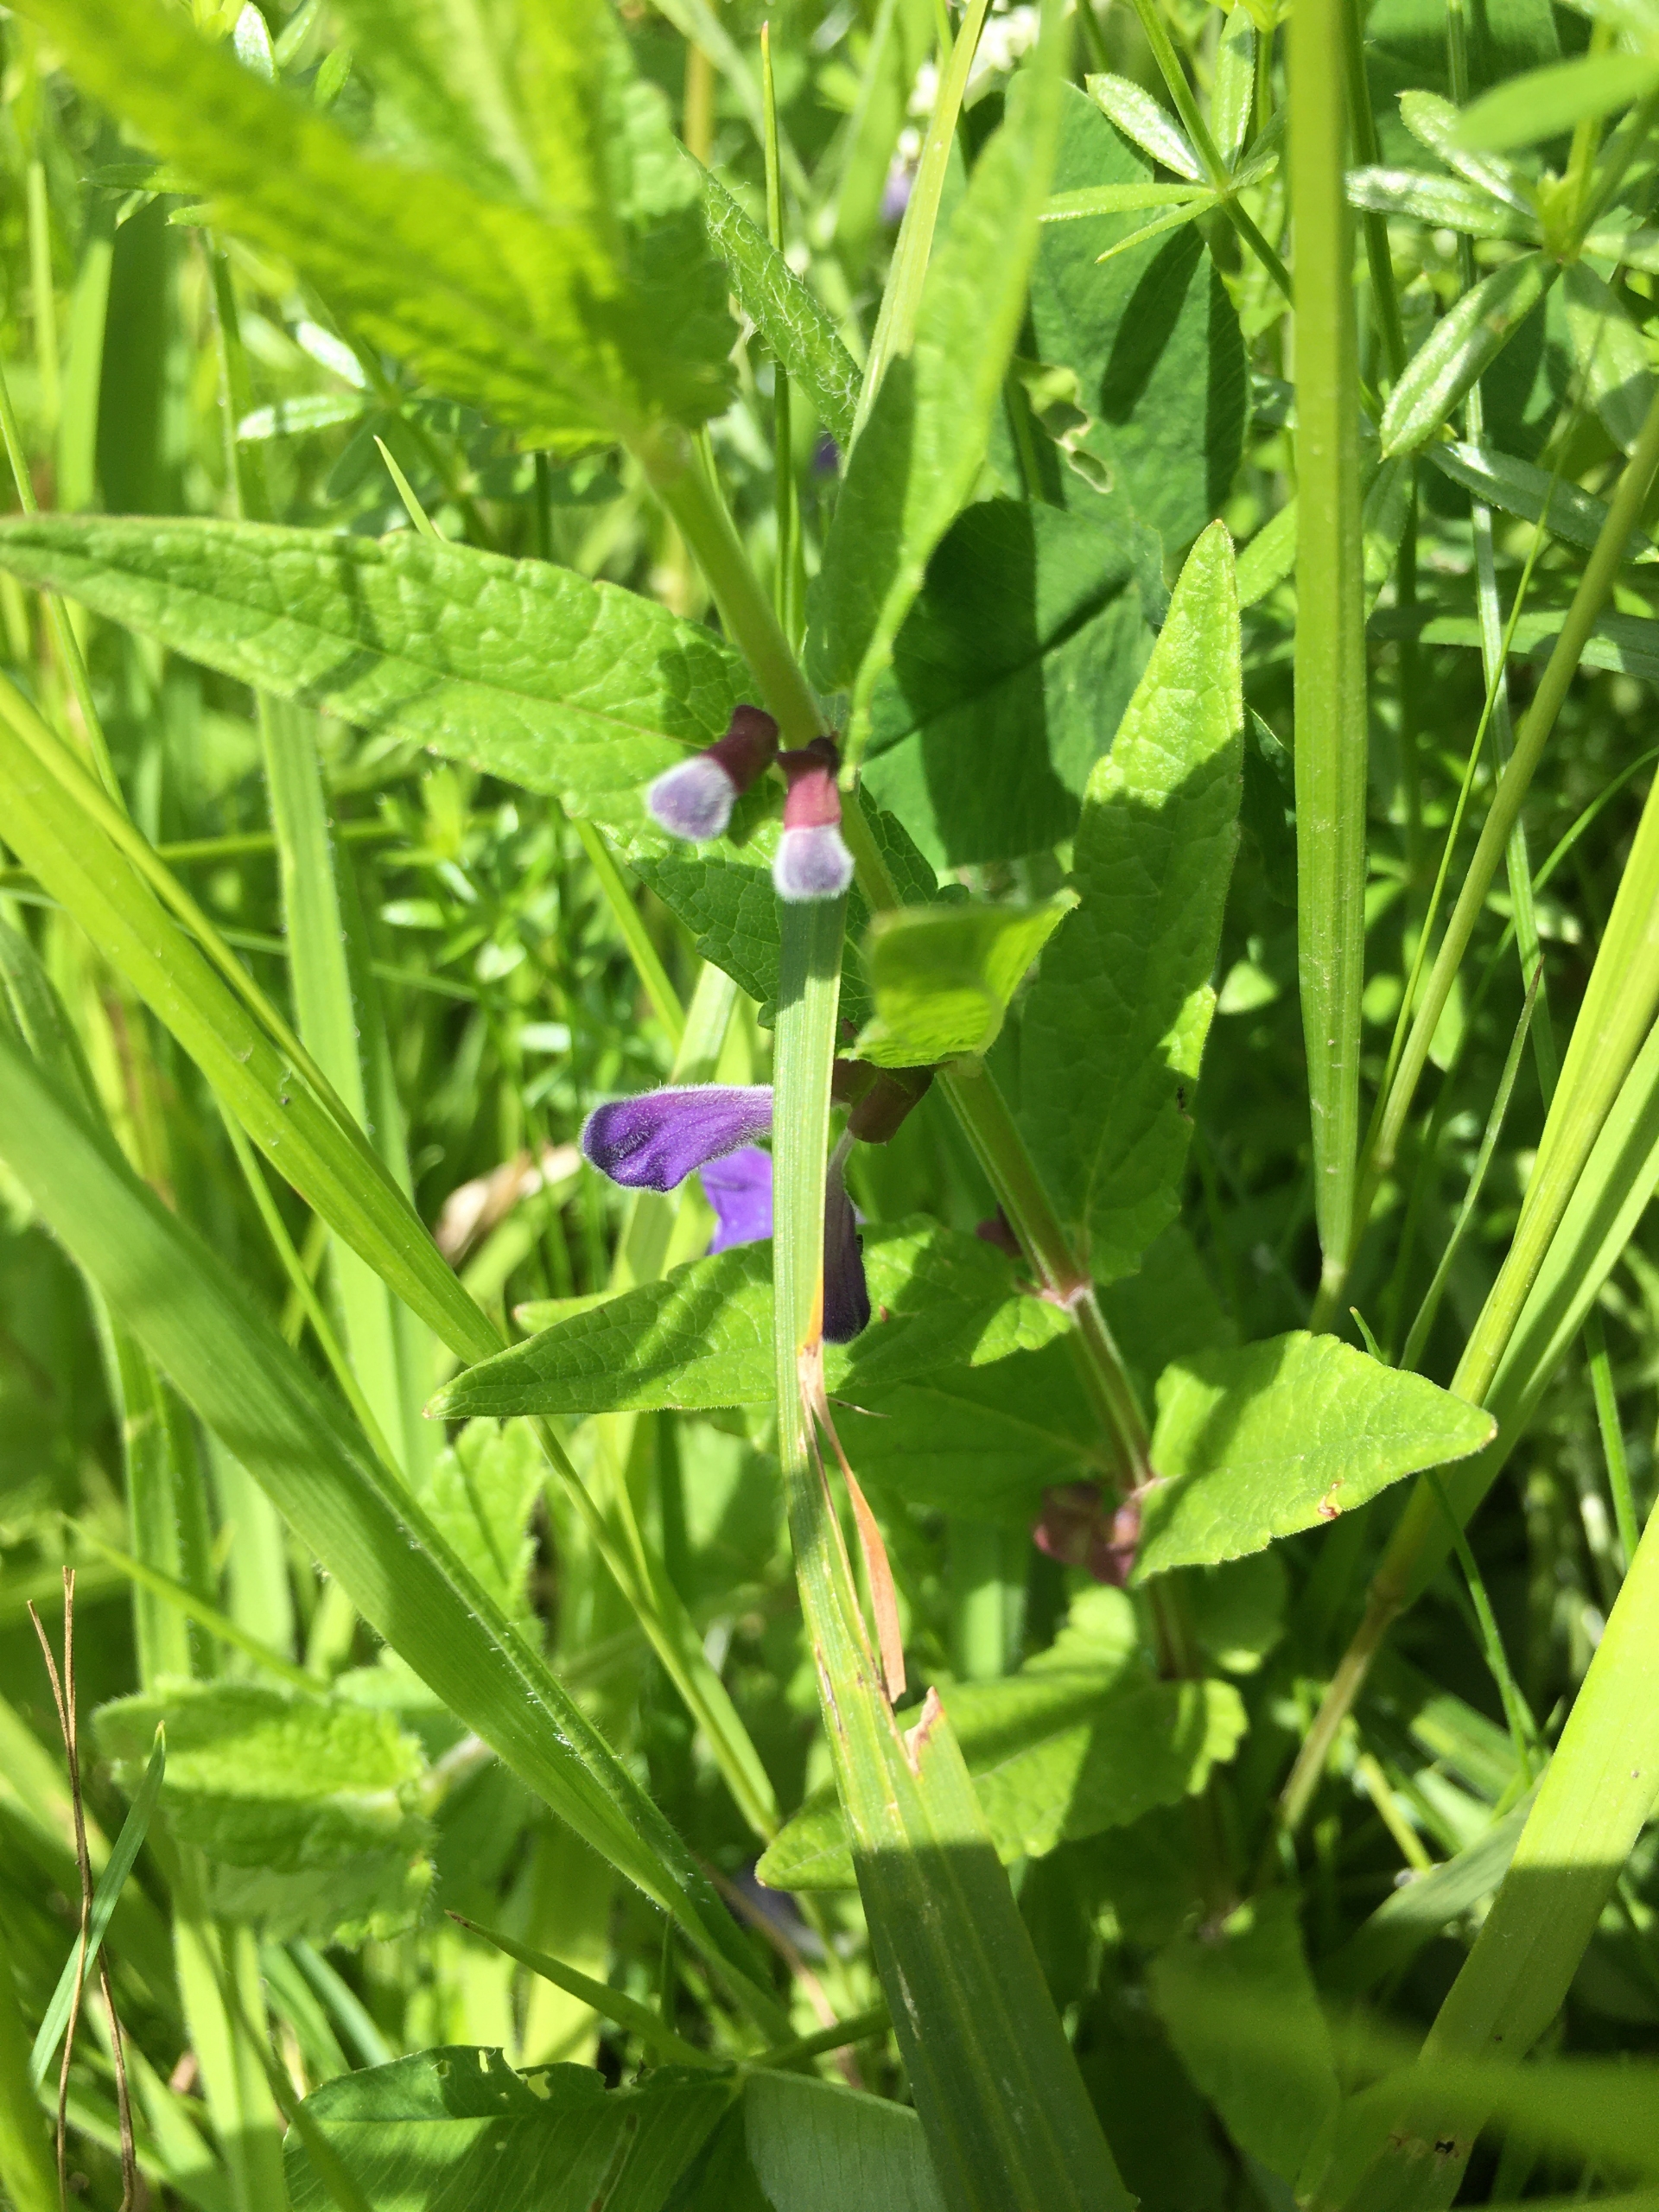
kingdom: Plantae
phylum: Tracheophyta
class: Magnoliopsida
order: Lamiales
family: Lamiaceae
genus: Scutellaria
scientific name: Scutellaria galericulata
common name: Almindelig skjolddrager
